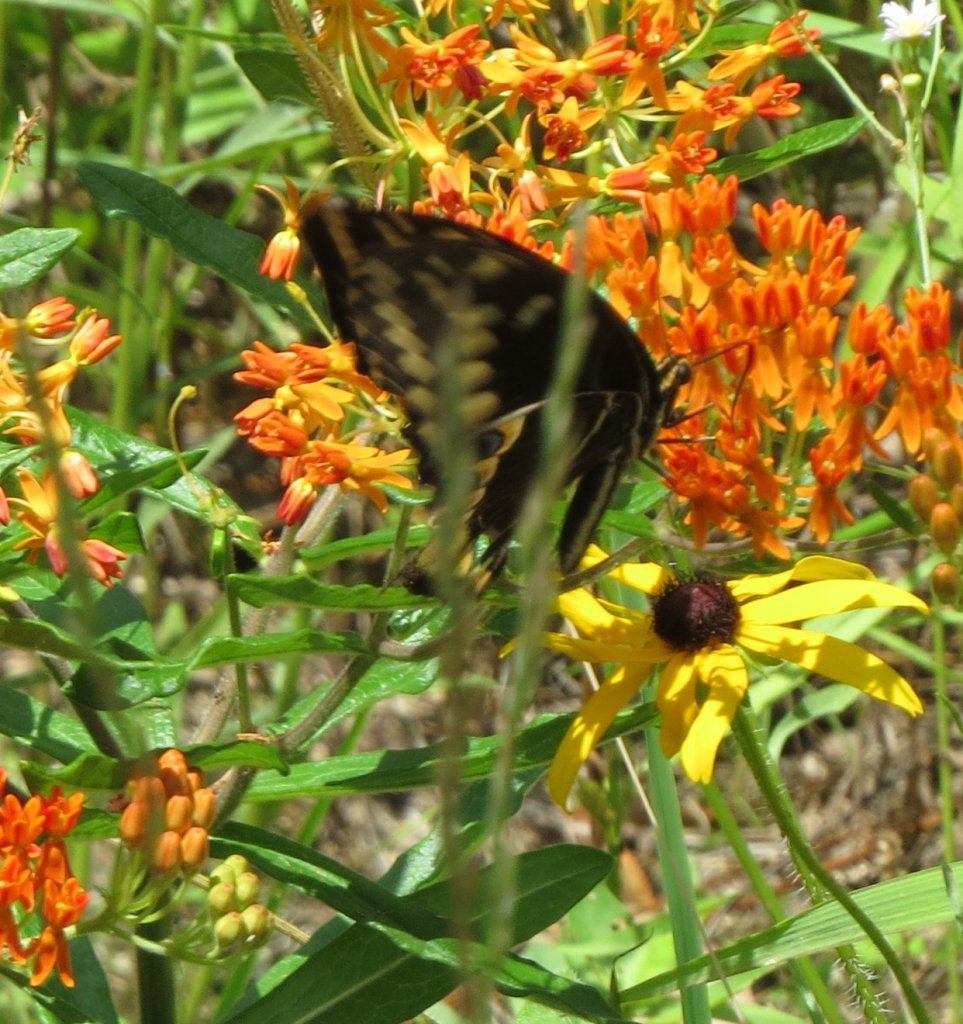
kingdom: Animalia
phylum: Arthropoda
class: Insecta
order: Lepidoptera
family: Papilionidae
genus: Pterourus
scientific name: Pterourus palamedes
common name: Palamedes Swallowtail
